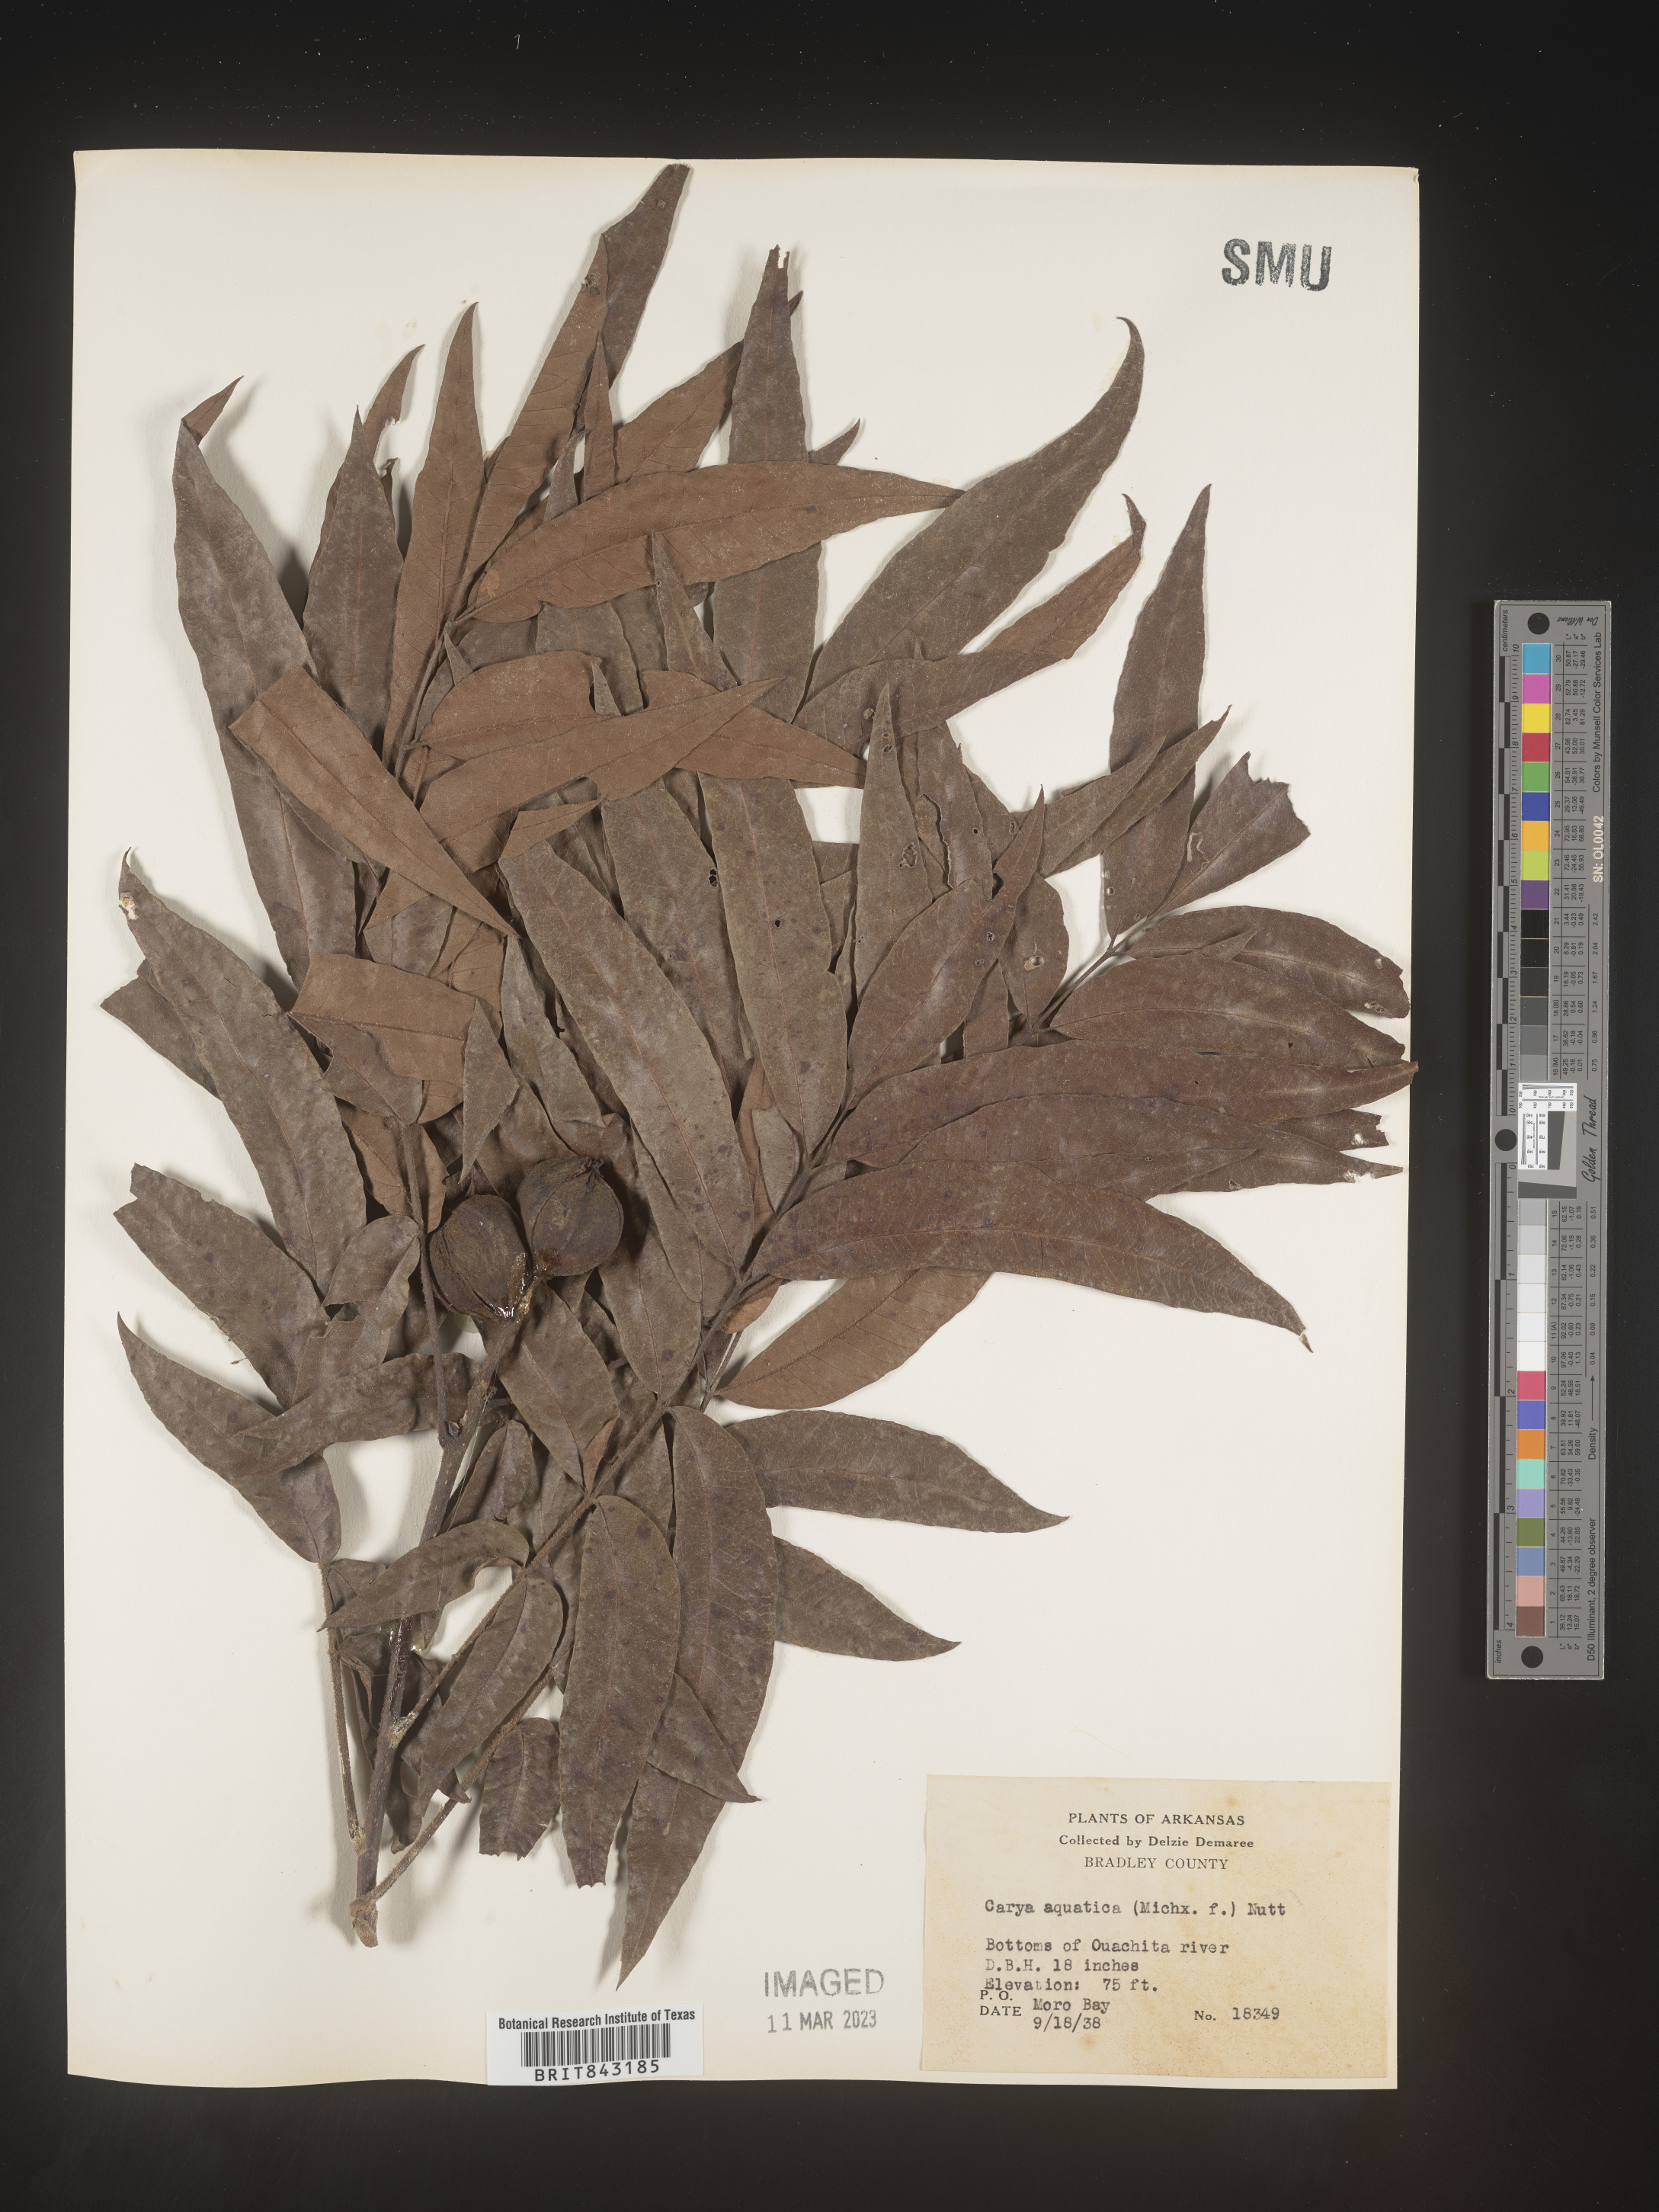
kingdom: Plantae
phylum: Tracheophyta
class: Magnoliopsida
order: Fagales
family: Juglandaceae
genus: Carya
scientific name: Carya aquatica
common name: Water hickory
